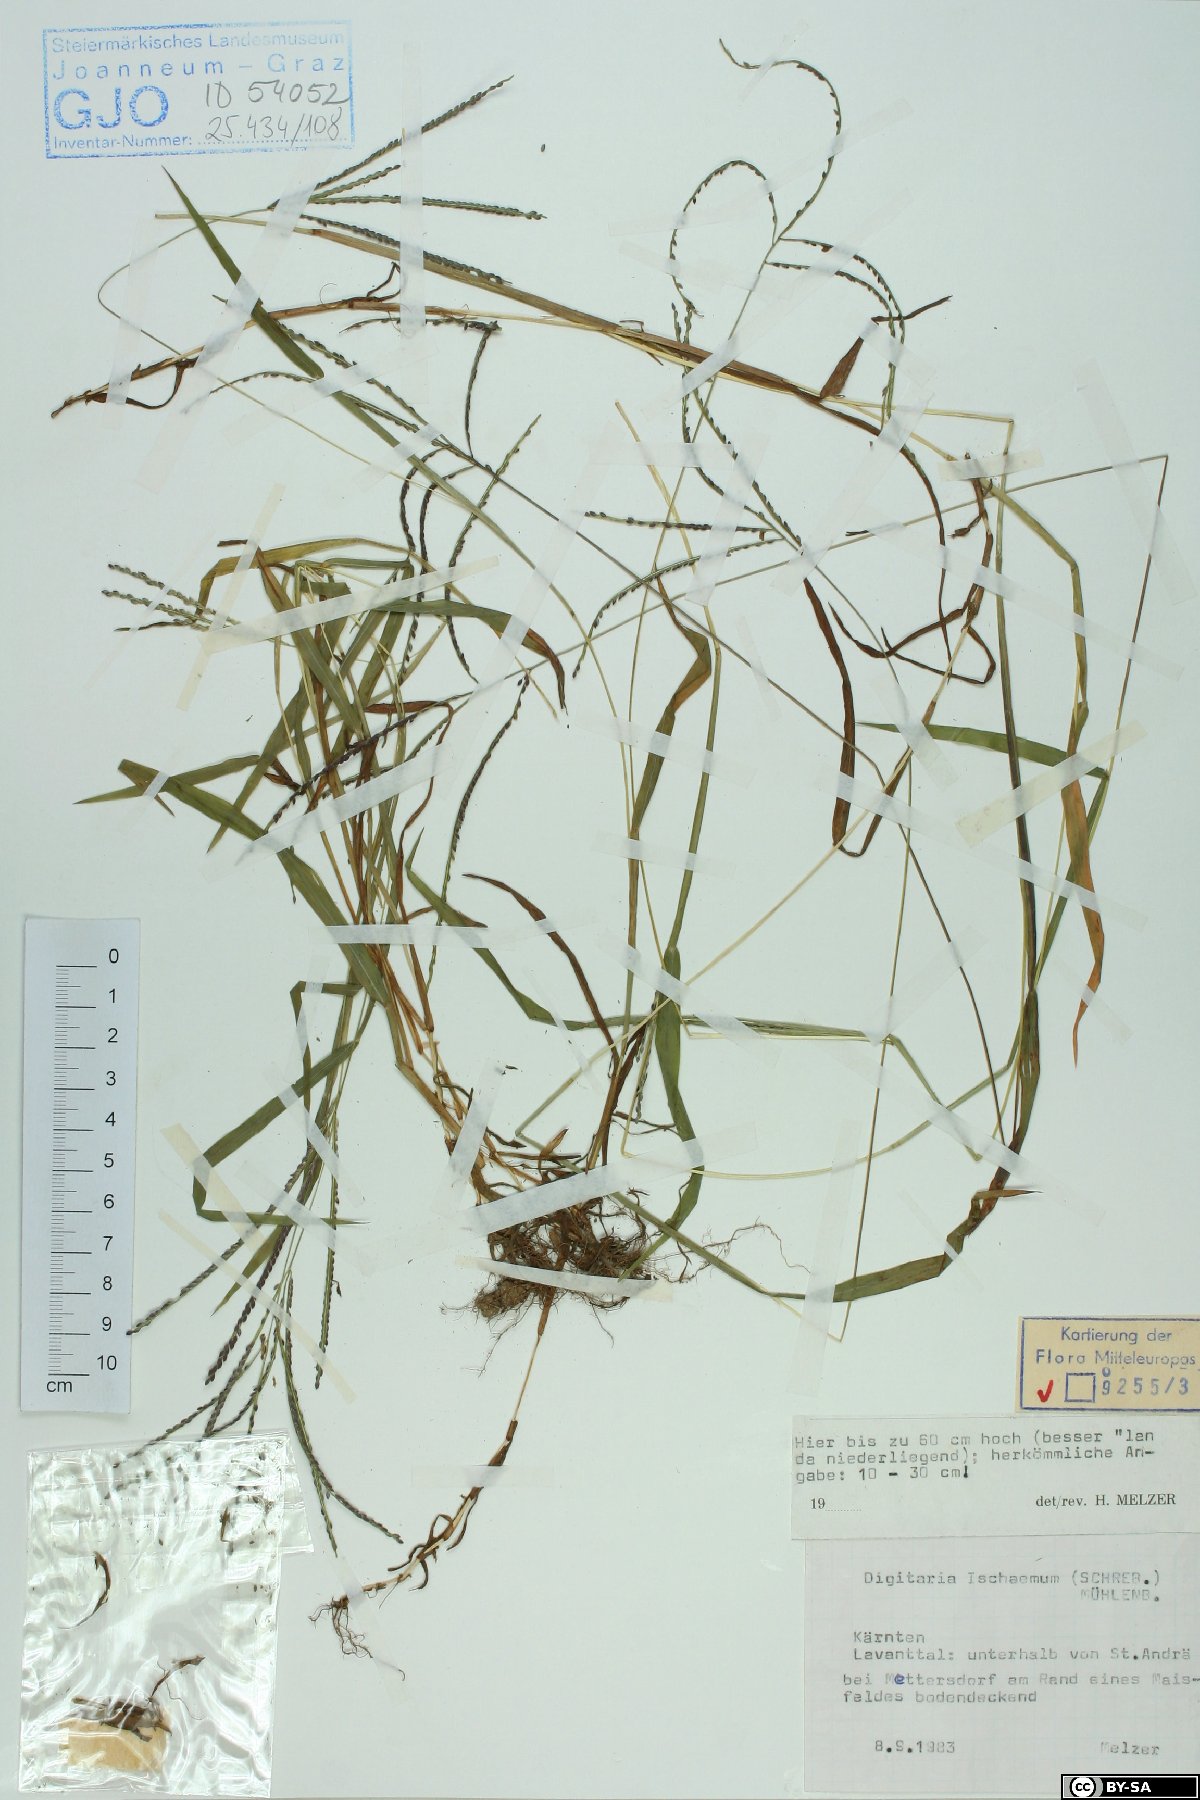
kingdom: Plantae
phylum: Tracheophyta
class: Liliopsida
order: Poales
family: Poaceae
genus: Digitaria
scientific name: Digitaria ischaemum
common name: Smooth crabgrass
